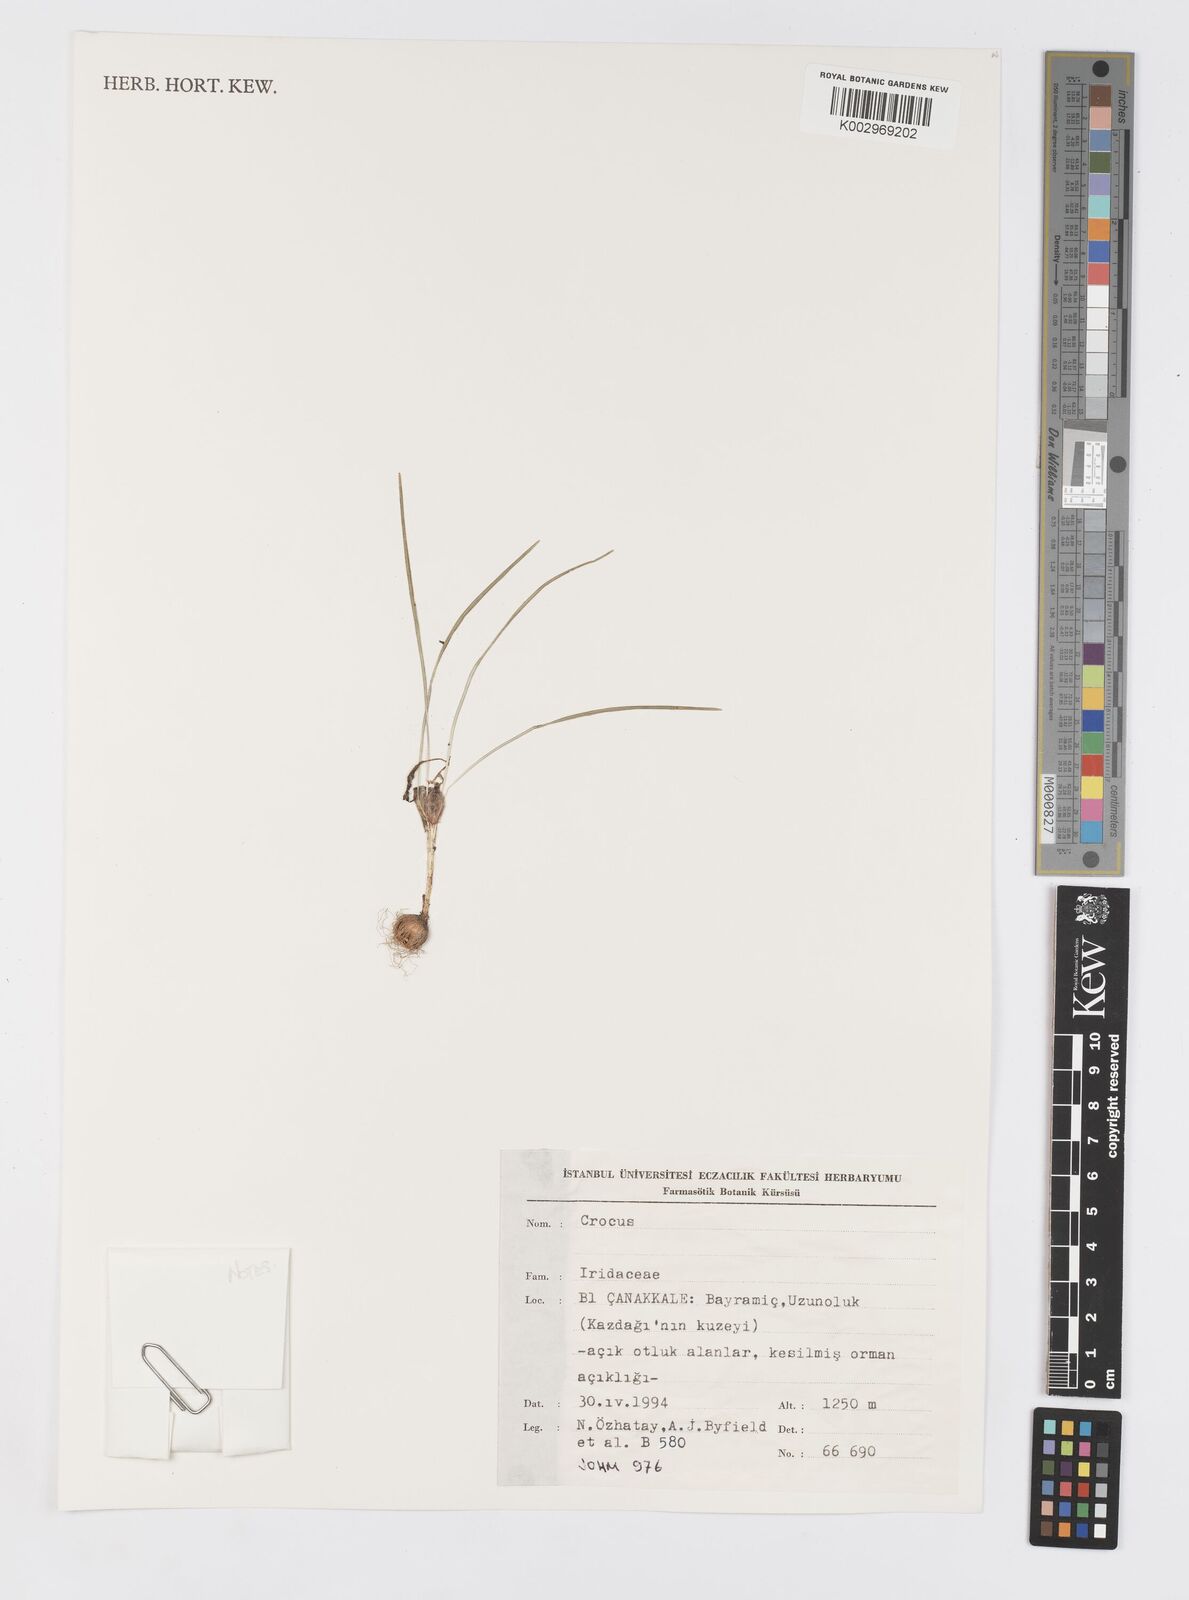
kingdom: Plantae
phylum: Tracheophyta
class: Liliopsida
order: Asparagales
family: Iridaceae
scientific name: Iridaceae
